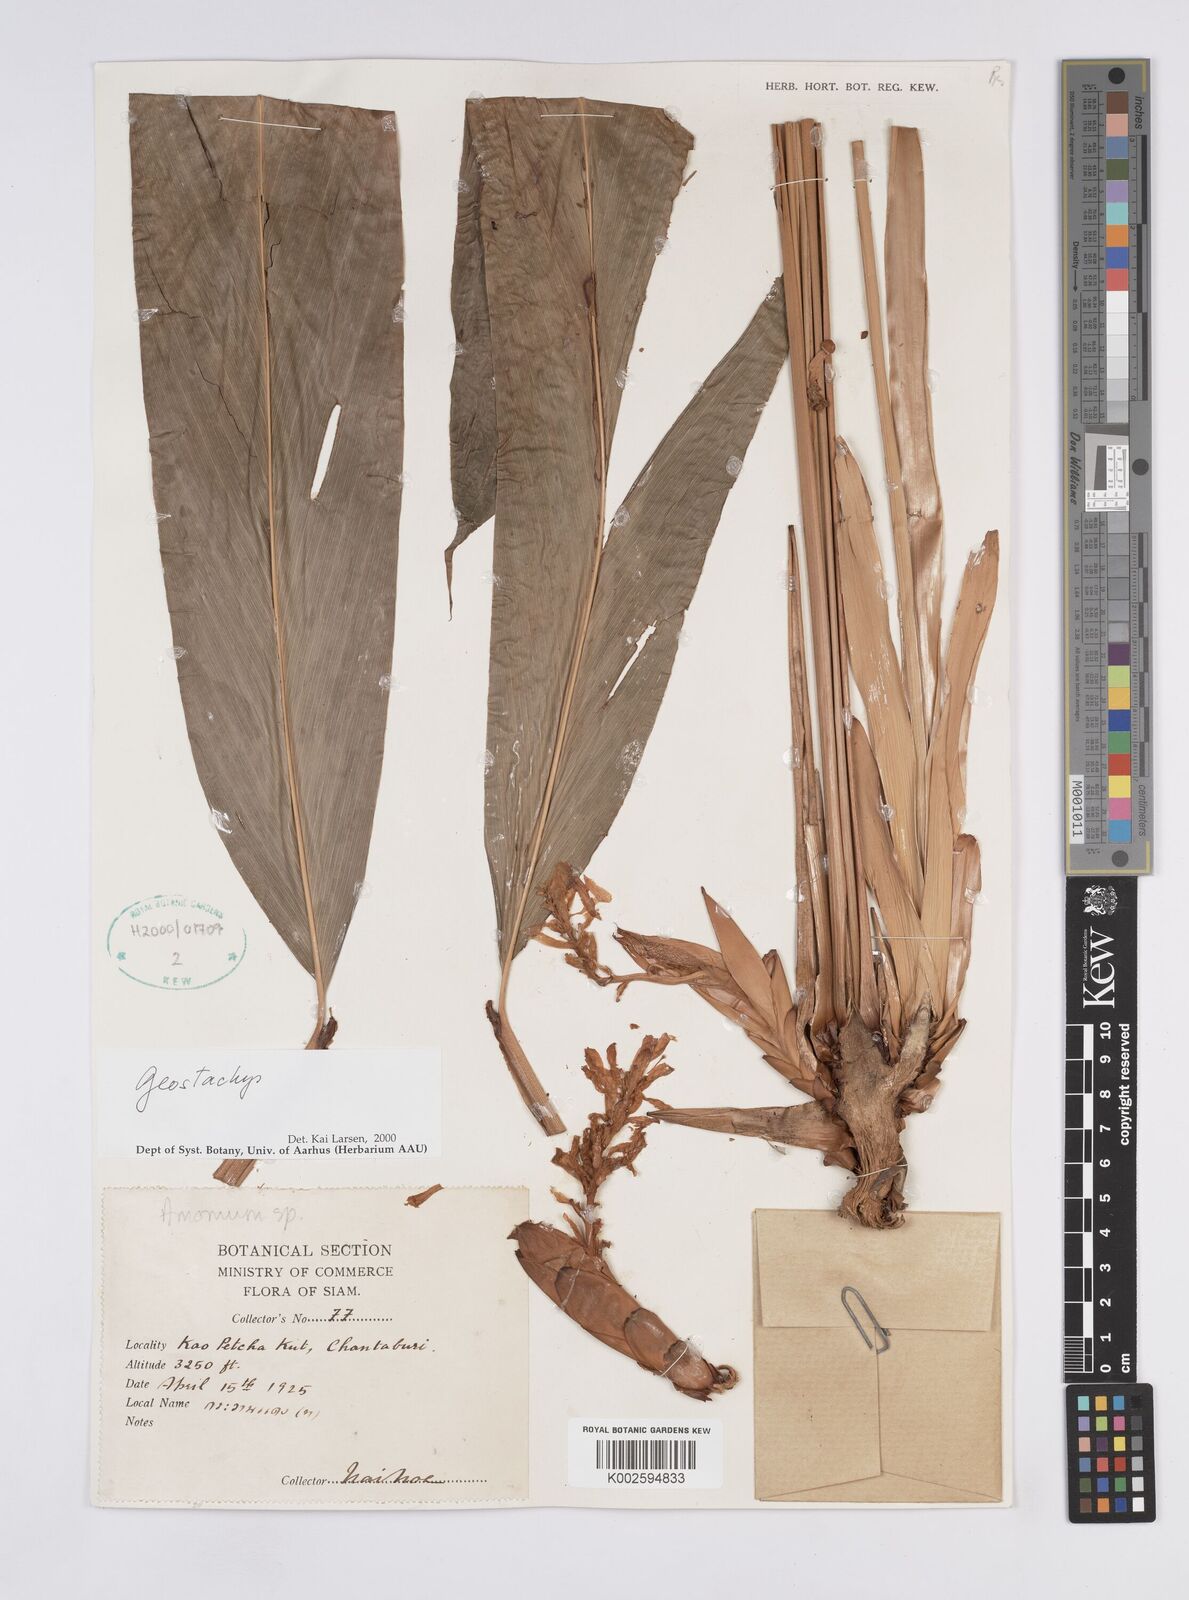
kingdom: Plantae
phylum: Tracheophyta
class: Liliopsida
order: Zingiberales
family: Zingiberaceae
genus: Geostachys
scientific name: Geostachys
